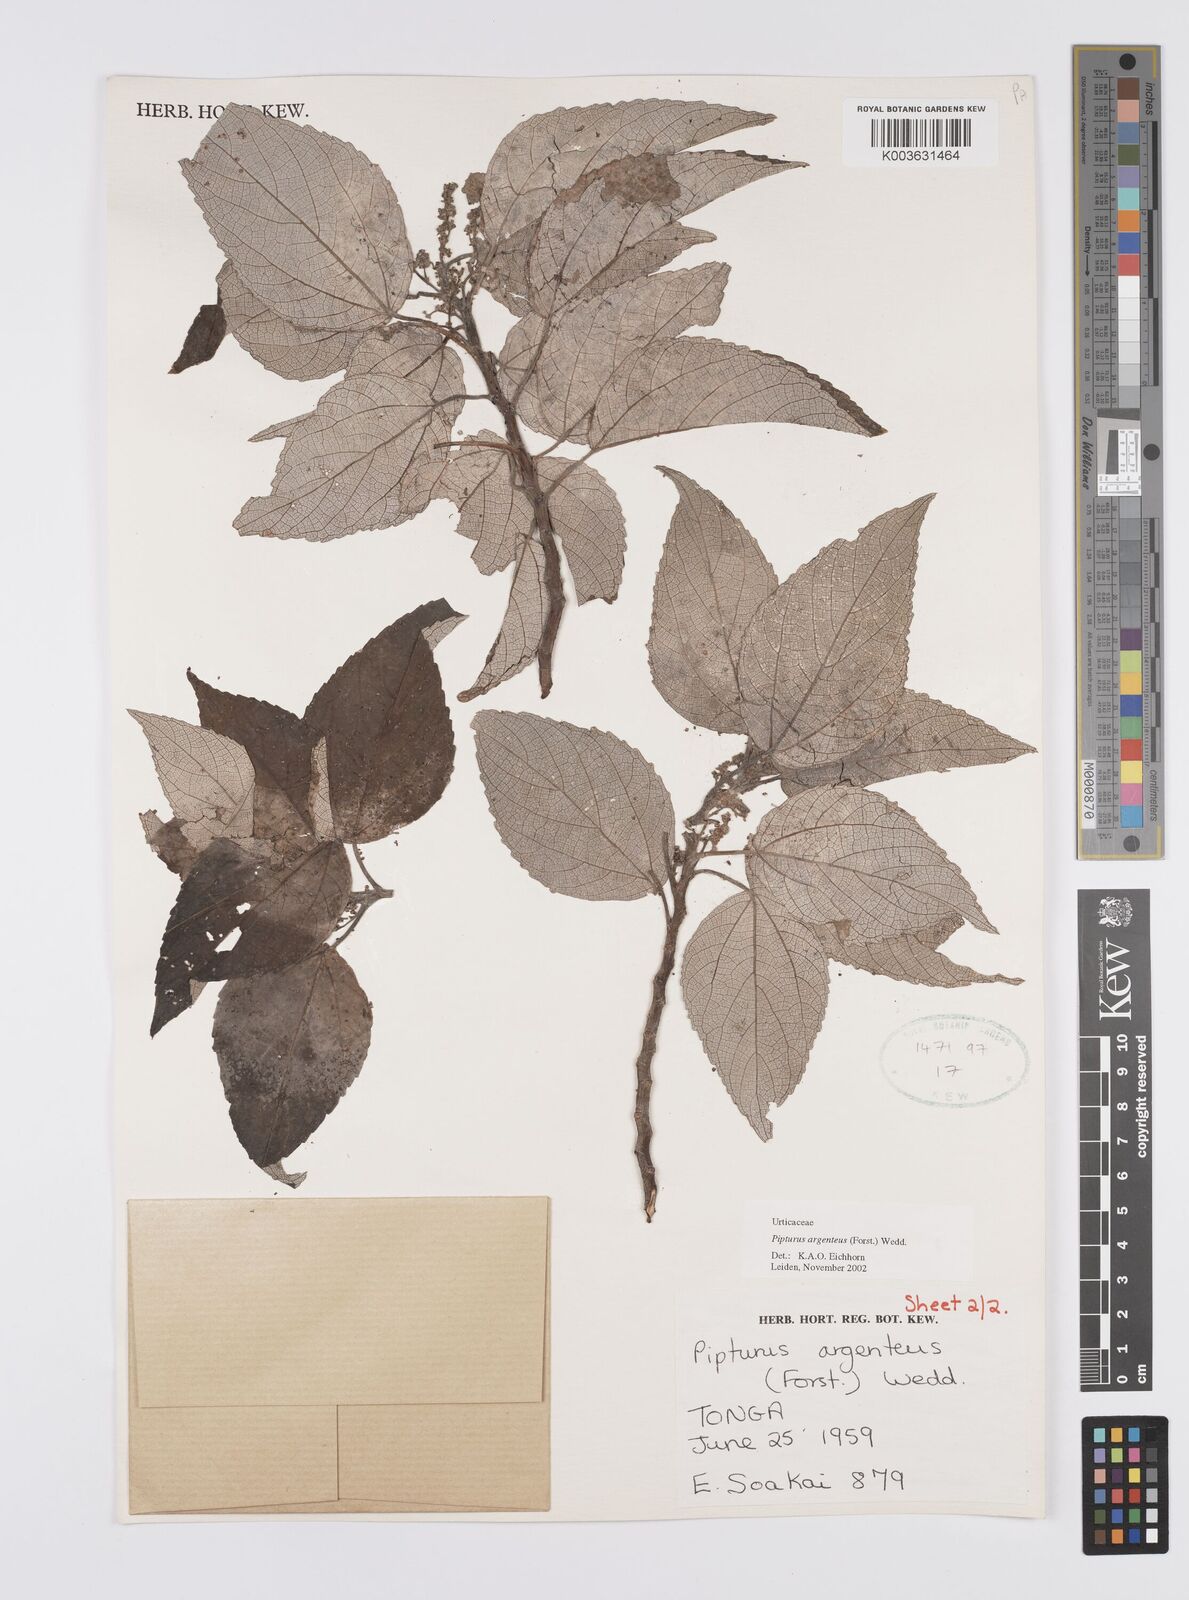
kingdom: Plantae
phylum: Tracheophyta
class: Magnoliopsida
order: Rosales
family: Urticaceae
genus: Pipturus
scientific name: Pipturus argenteus
